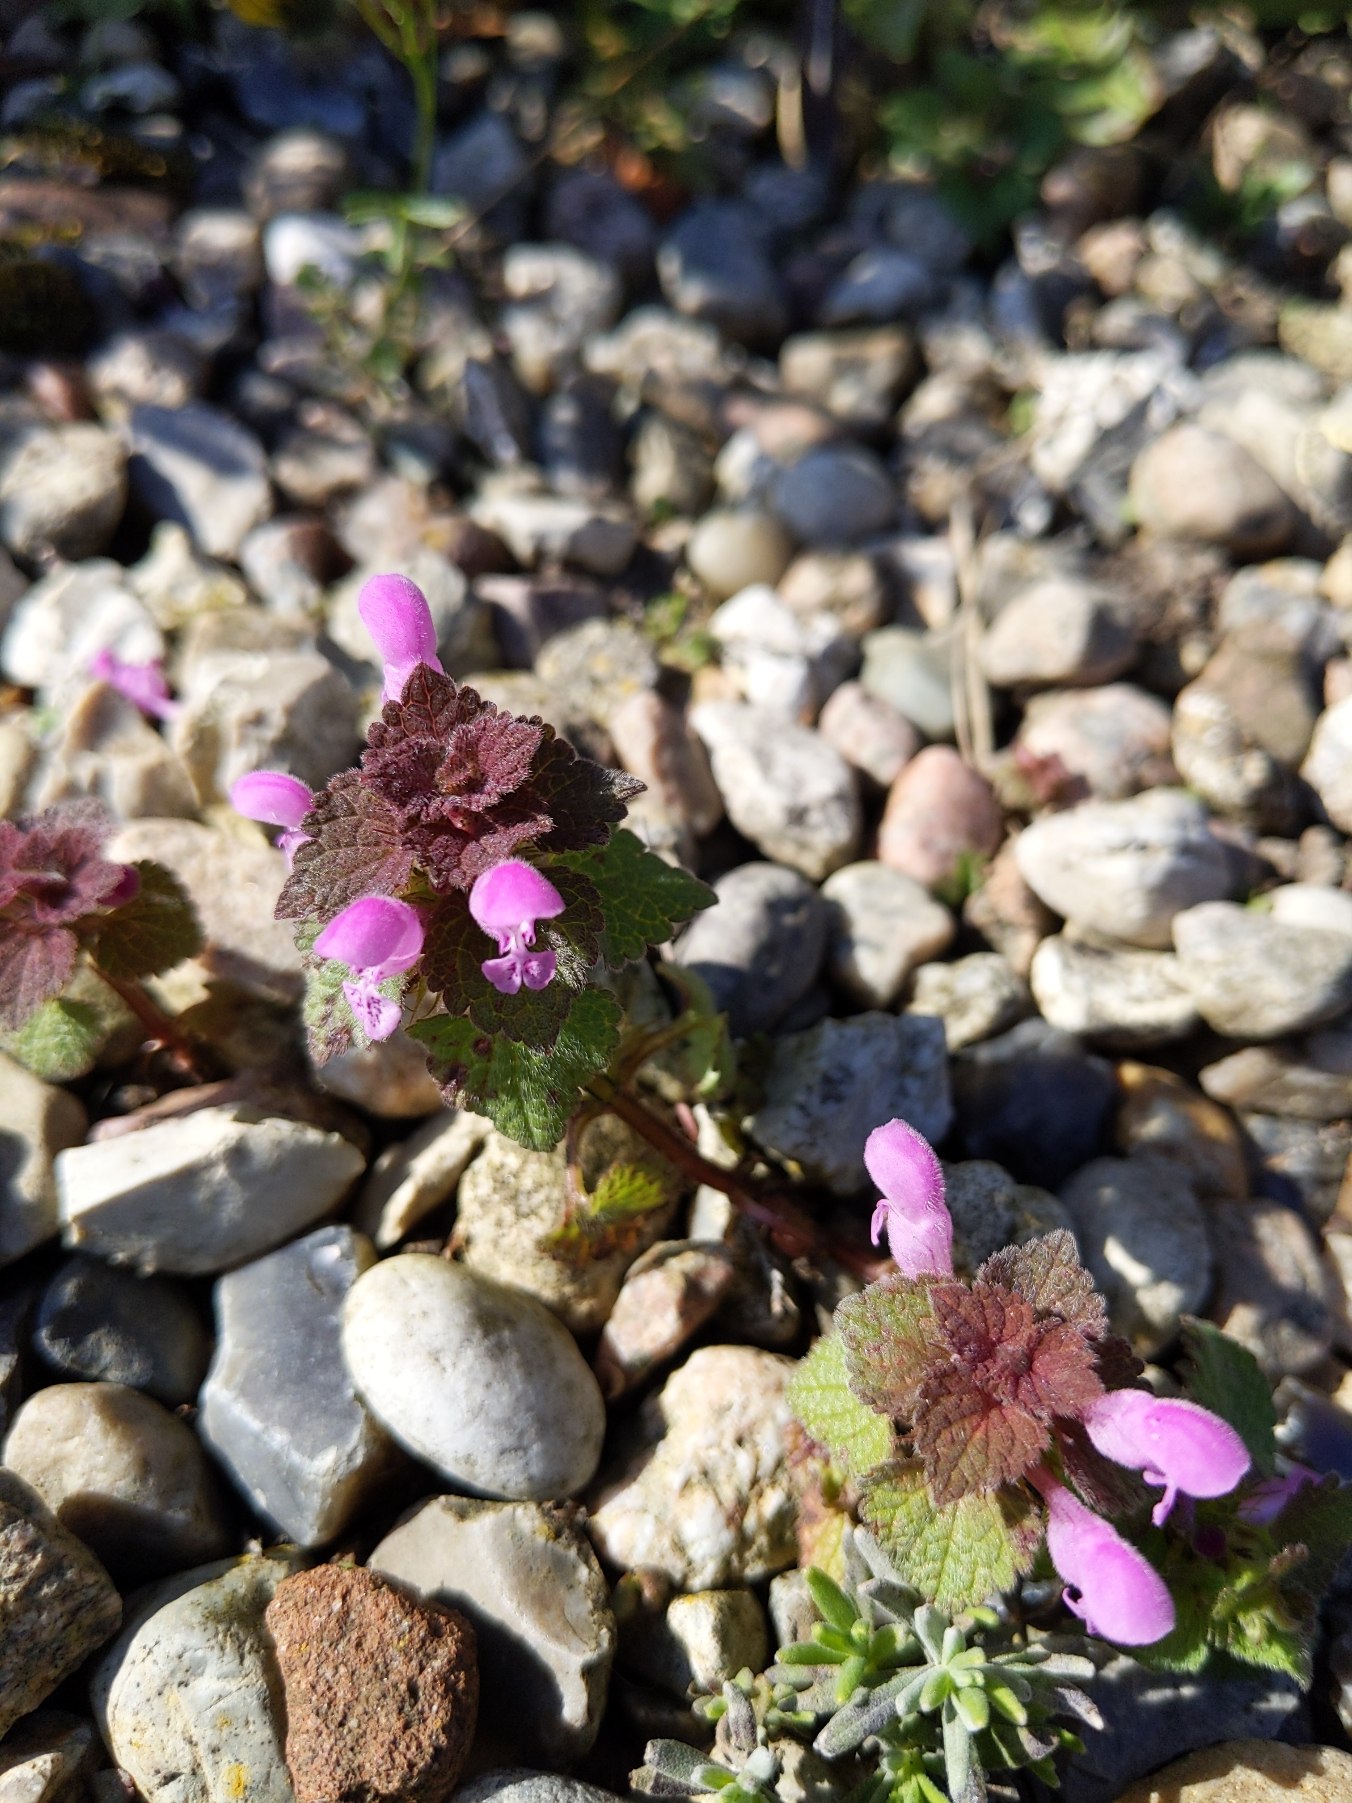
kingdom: Plantae
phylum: Tracheophyta
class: Magnoliopsida
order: Lamiales
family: Lamiaceae
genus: Lamium
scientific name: Lamium purpureum
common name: Rød tvetand
